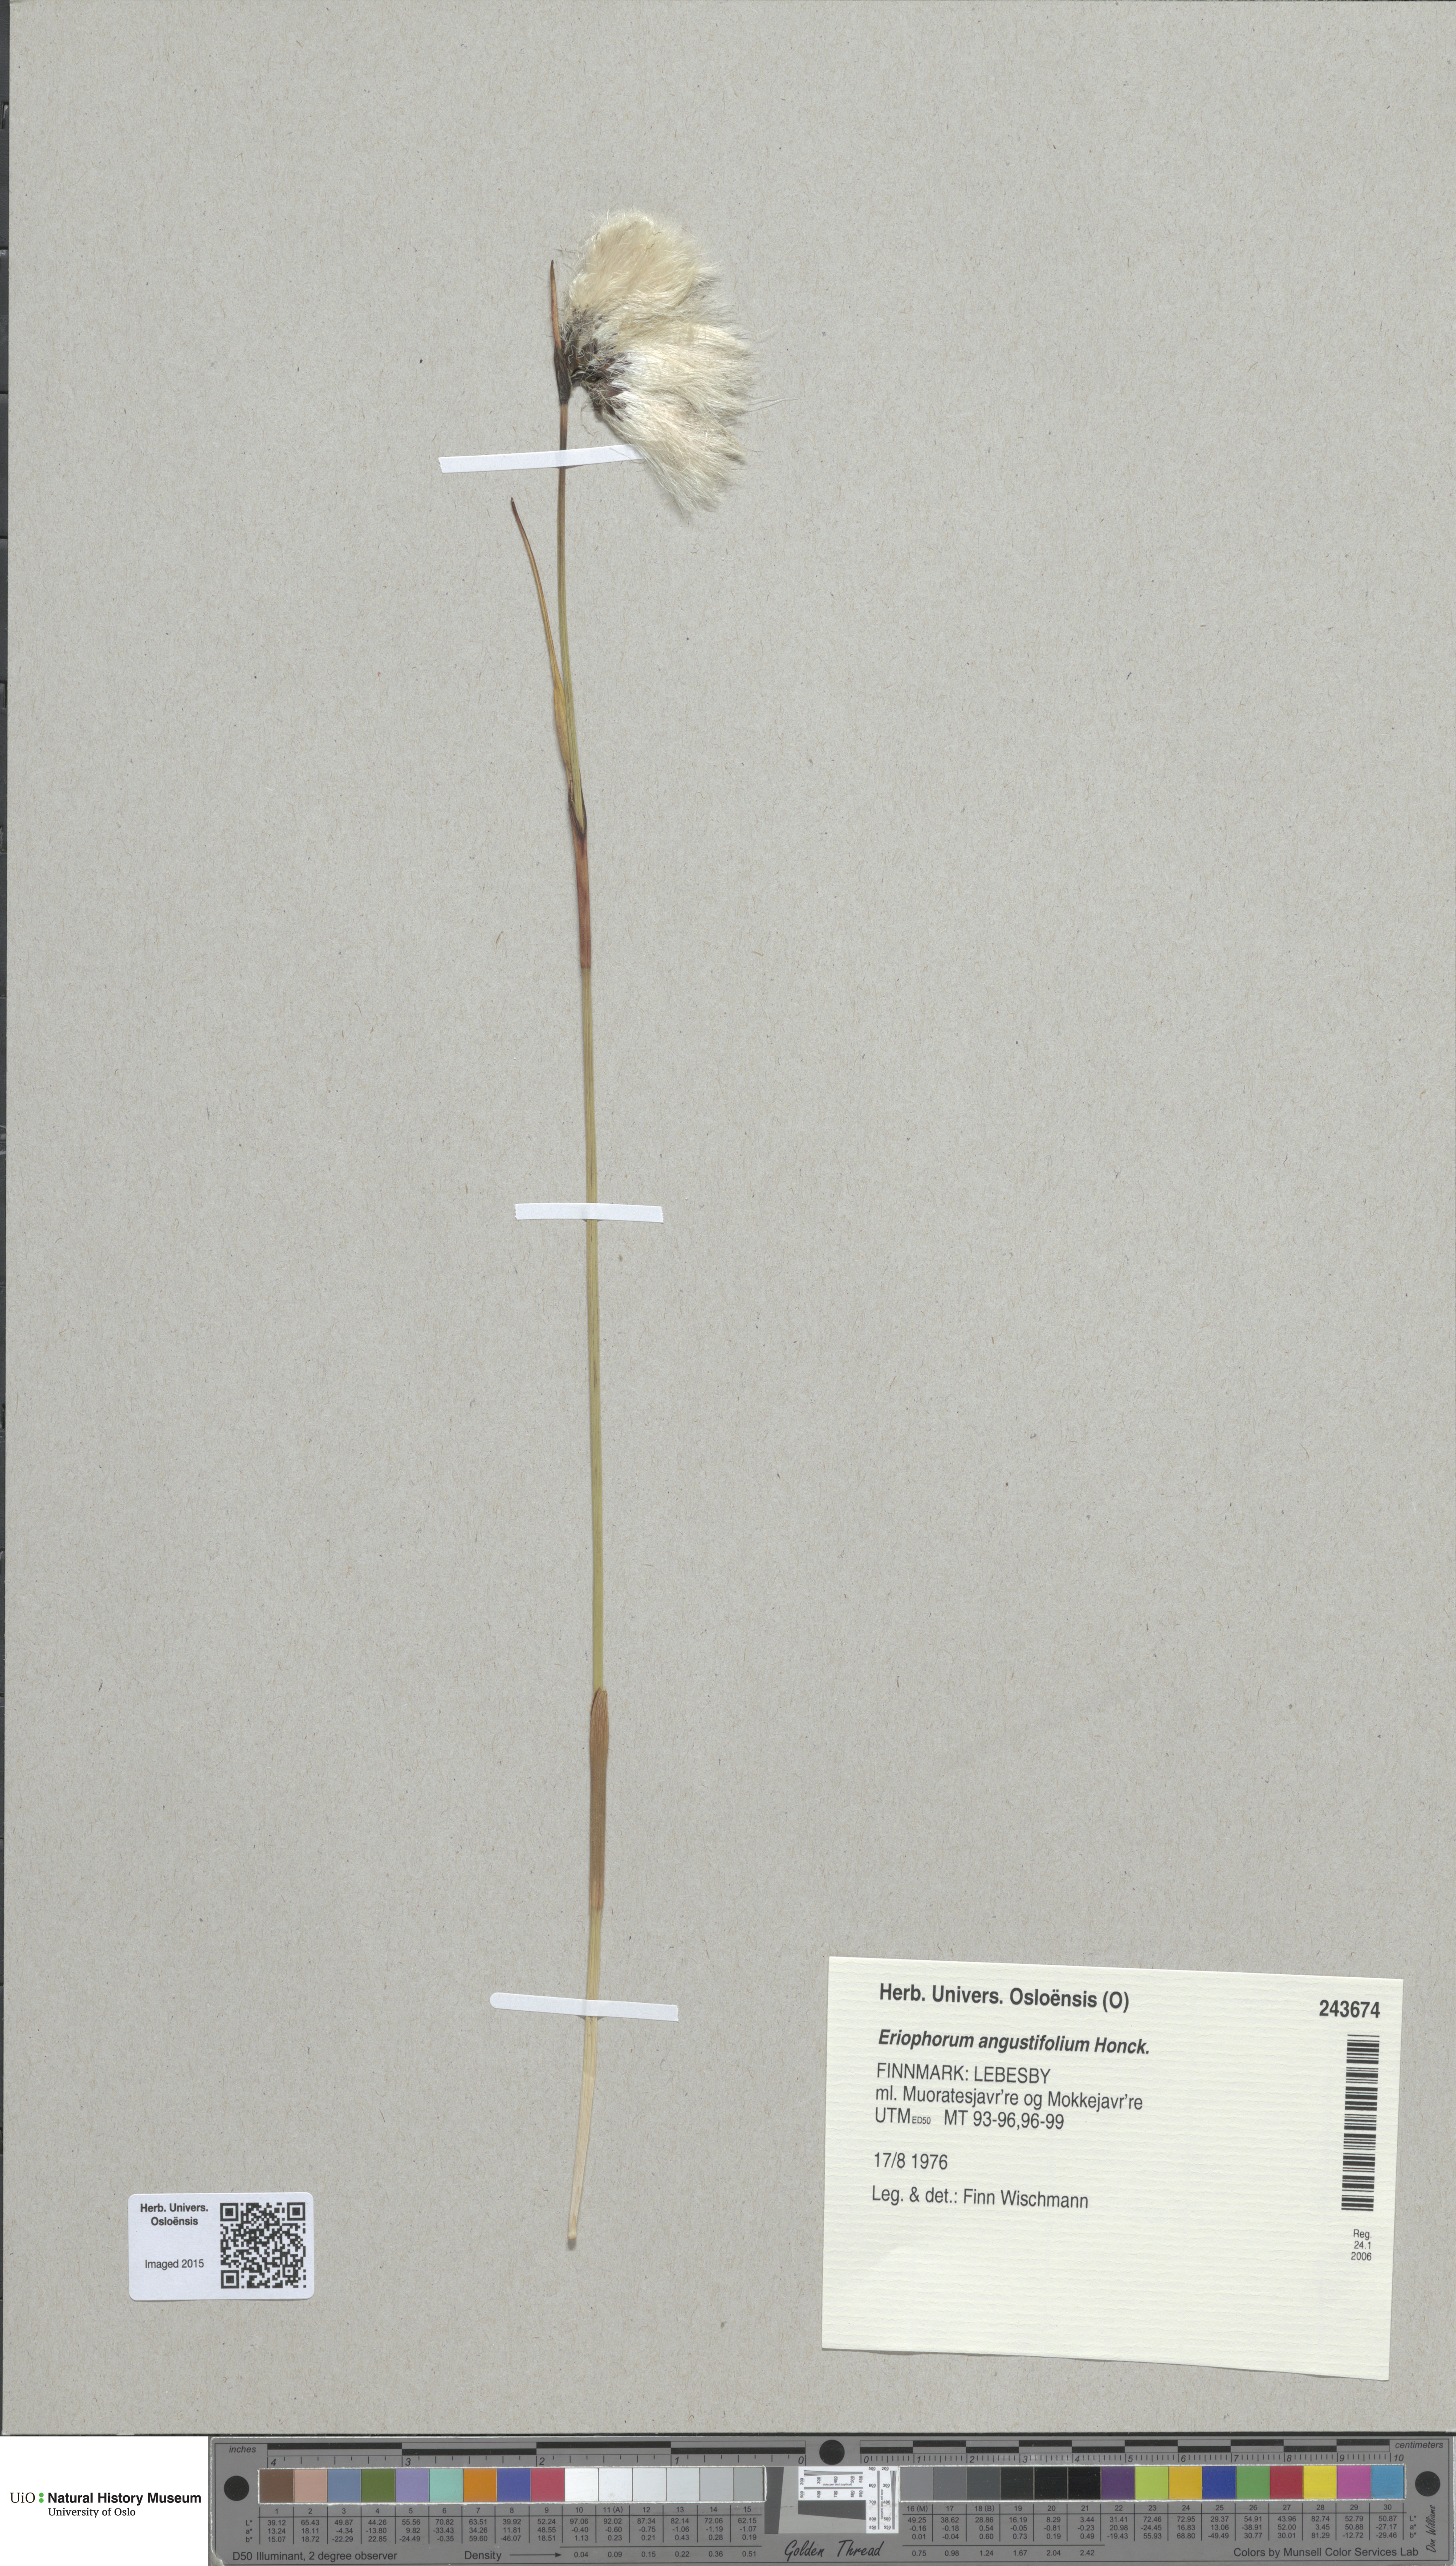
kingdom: Plantae
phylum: Tracheophyta
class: Liliopsida
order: Poales
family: Cyperaceae
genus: Eriophorum
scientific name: Eriophorum angustifolium
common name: Common cottongrass
